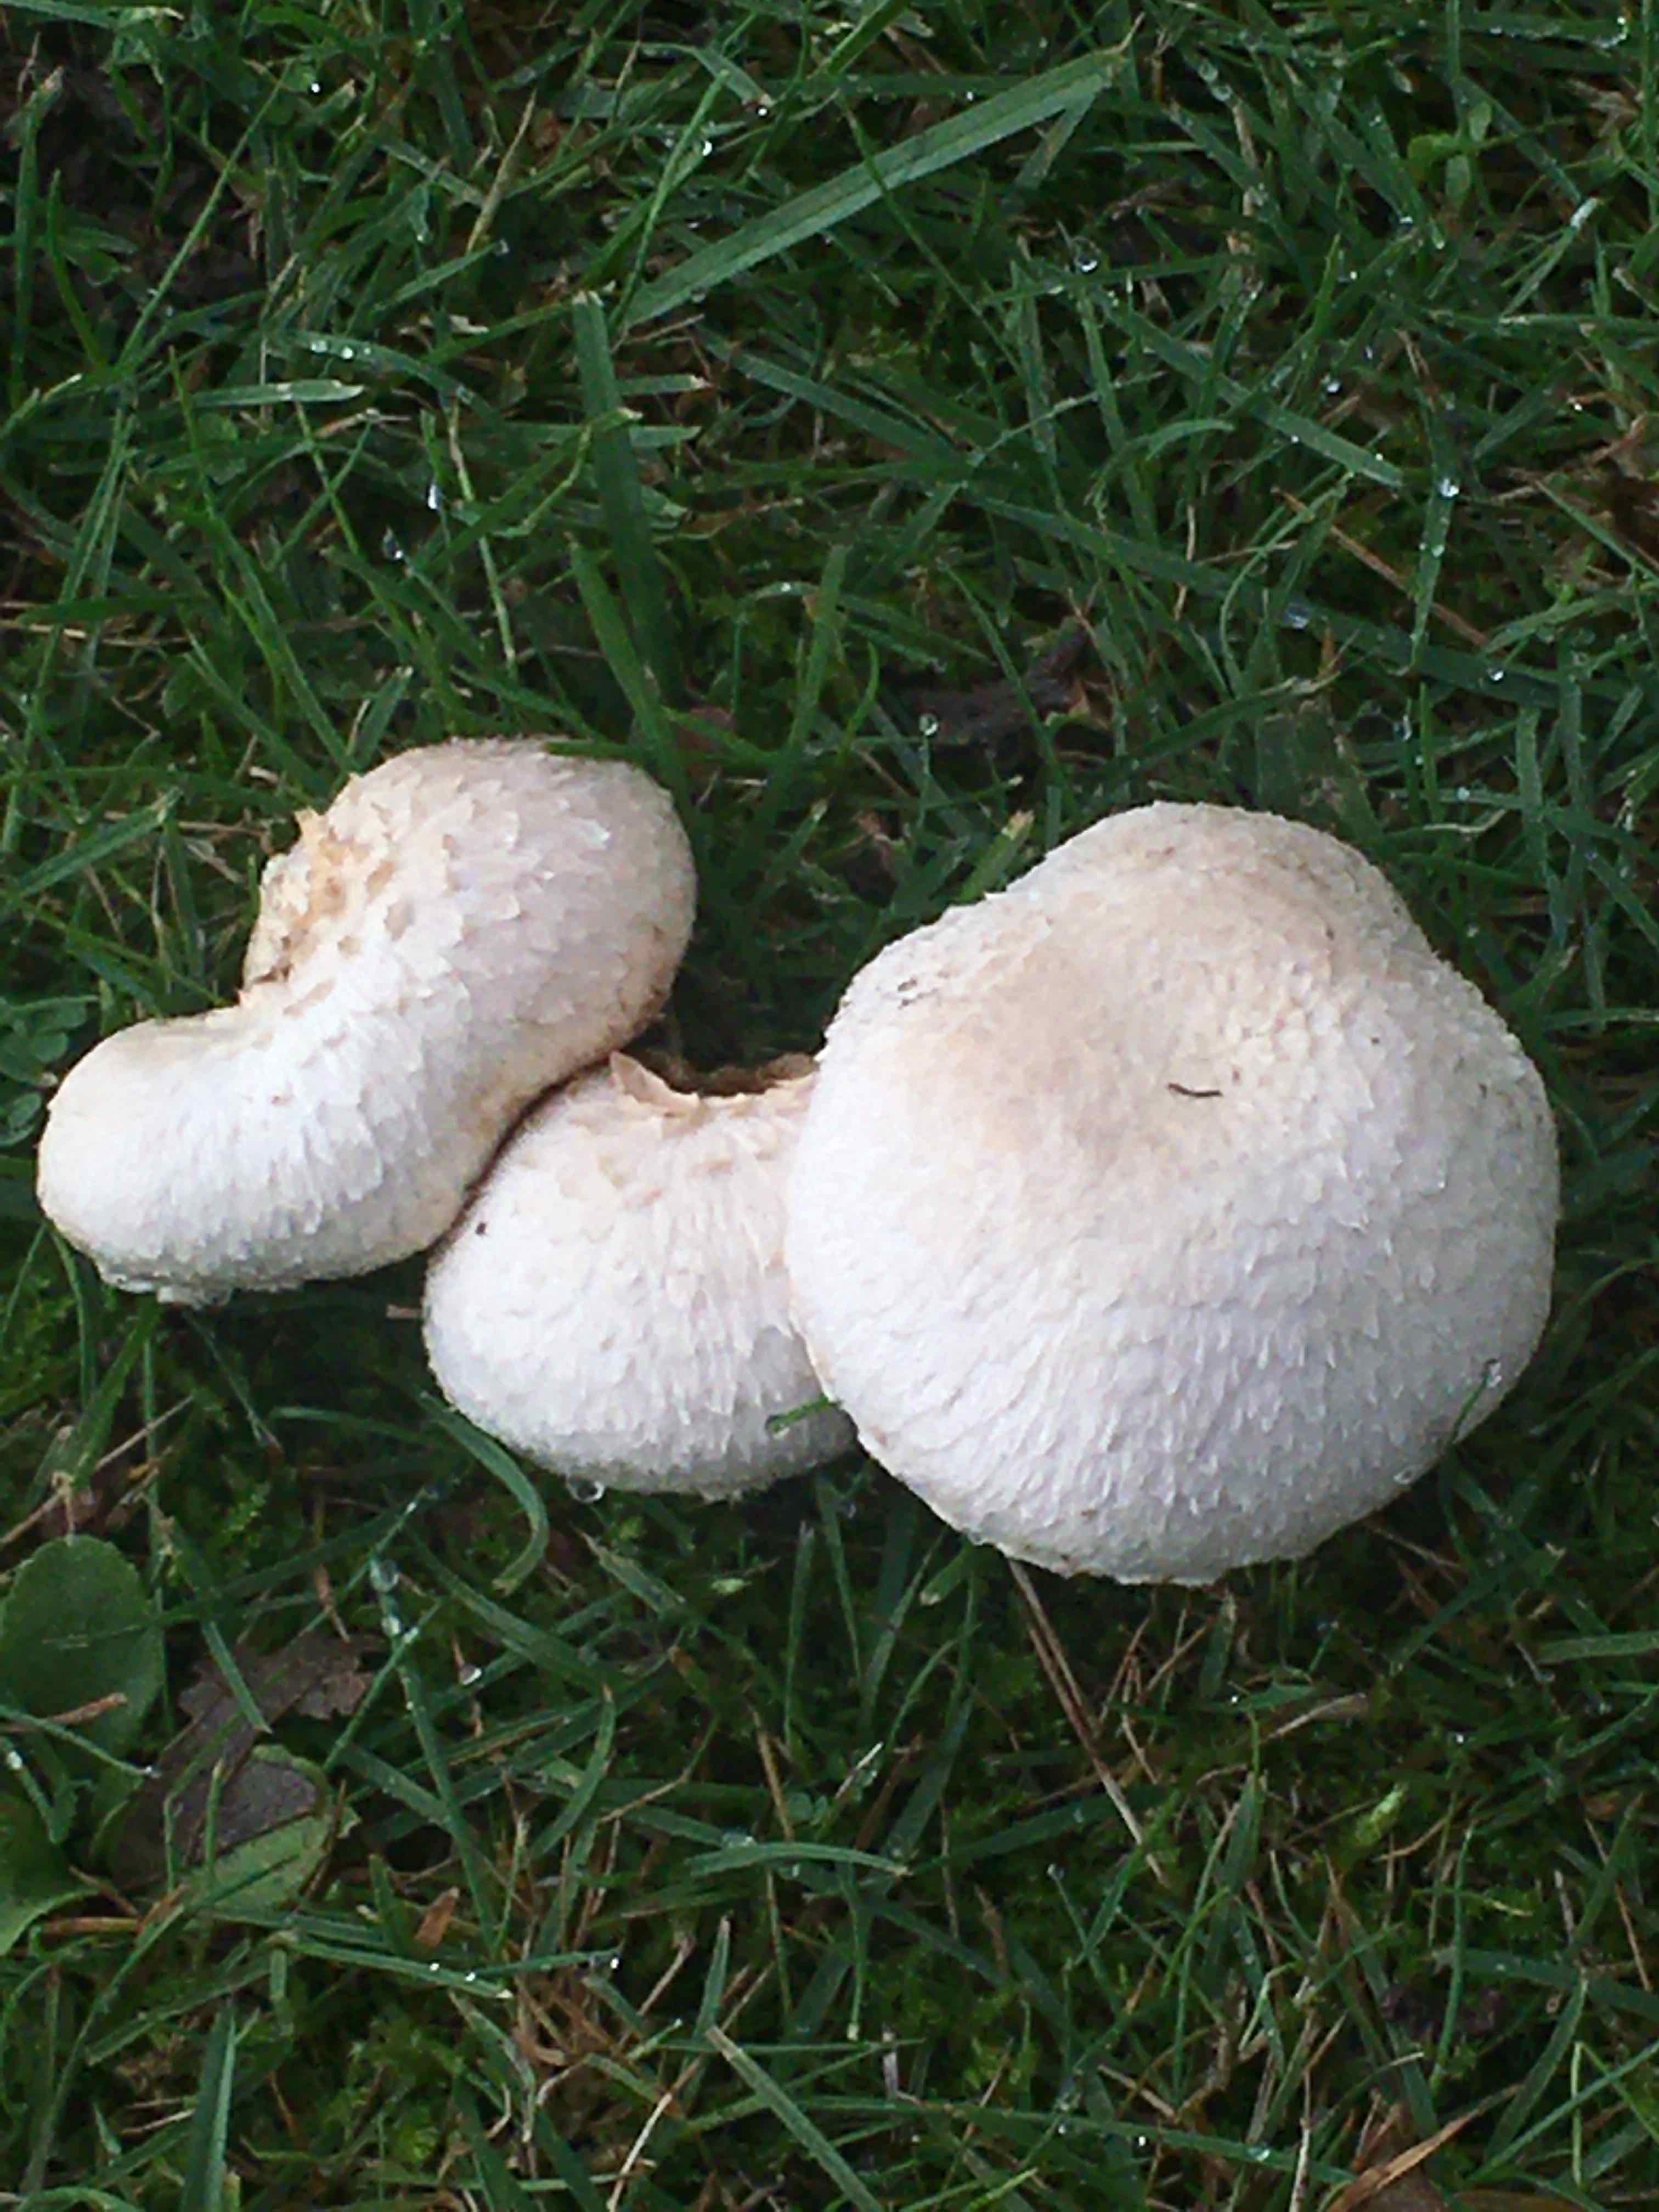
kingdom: Fungi
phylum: Basidiomycota
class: Agaricomycetes
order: Agaricales
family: Agaricaceae
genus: Agaricus
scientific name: Agaricus
